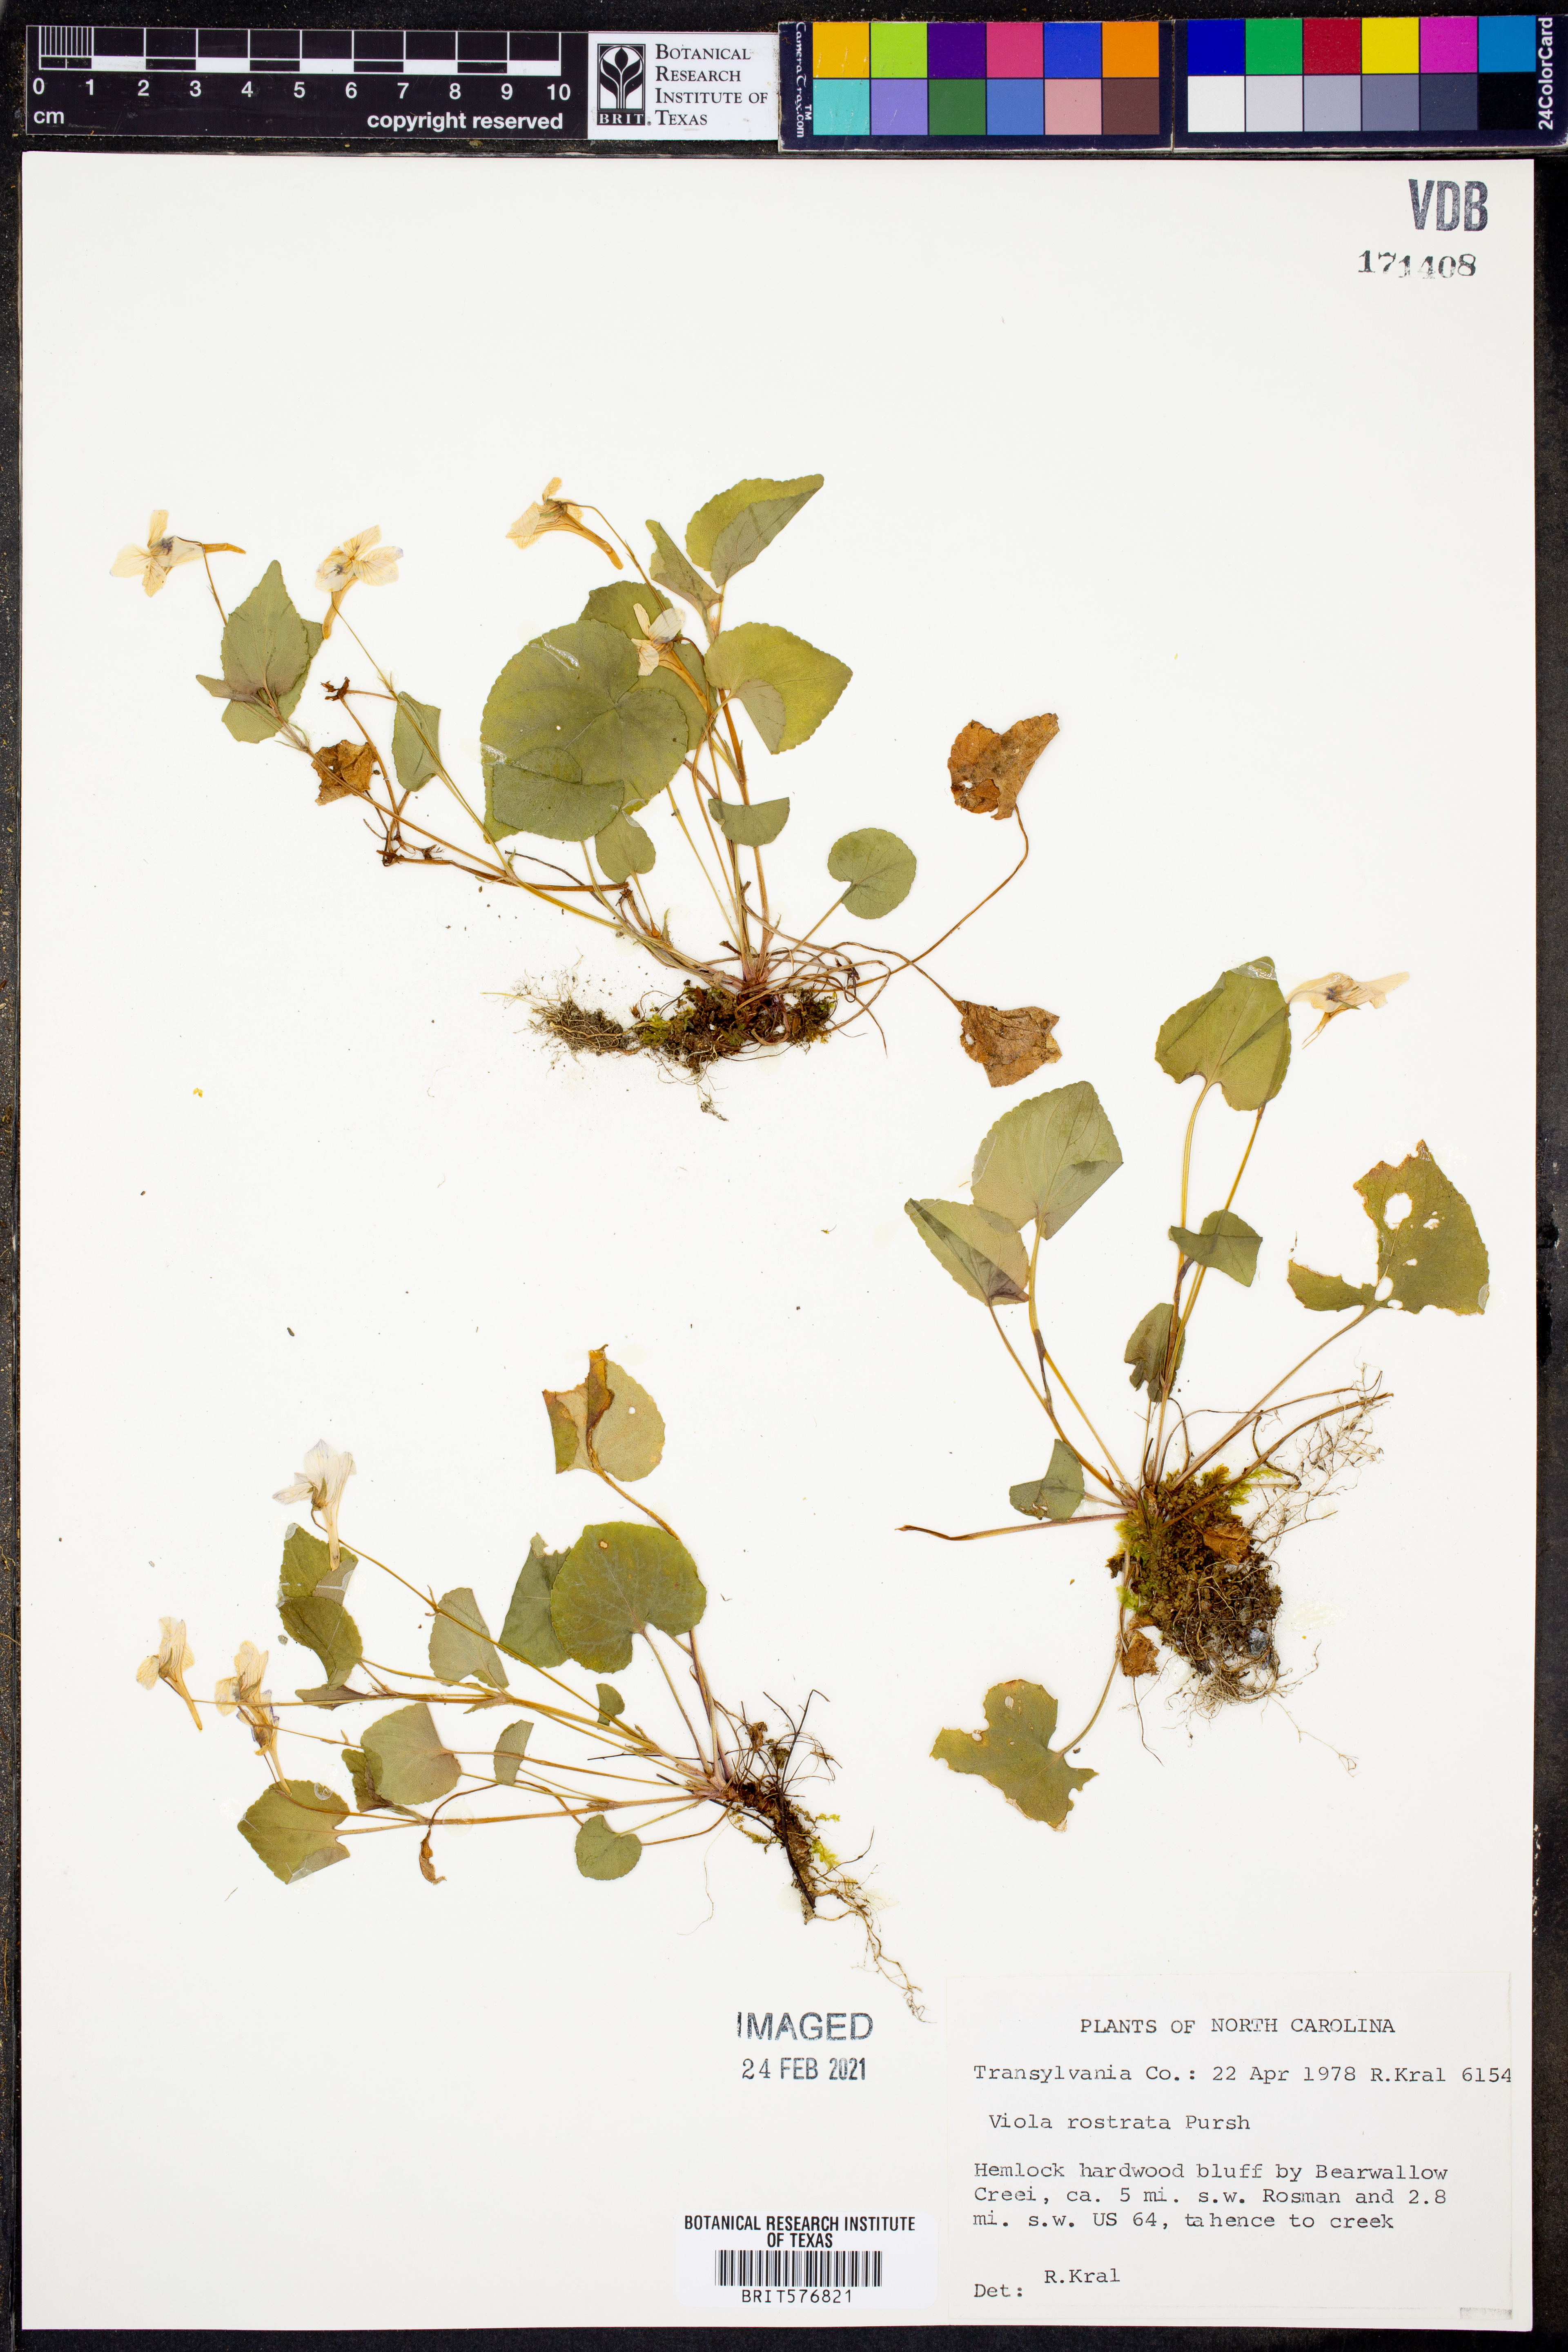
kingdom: Plantae
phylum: Tracheophyta
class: Magnoliopsida
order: Malpighiales
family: Violaceae
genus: Viola
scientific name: Viola rostrata
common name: Long-spur violet
